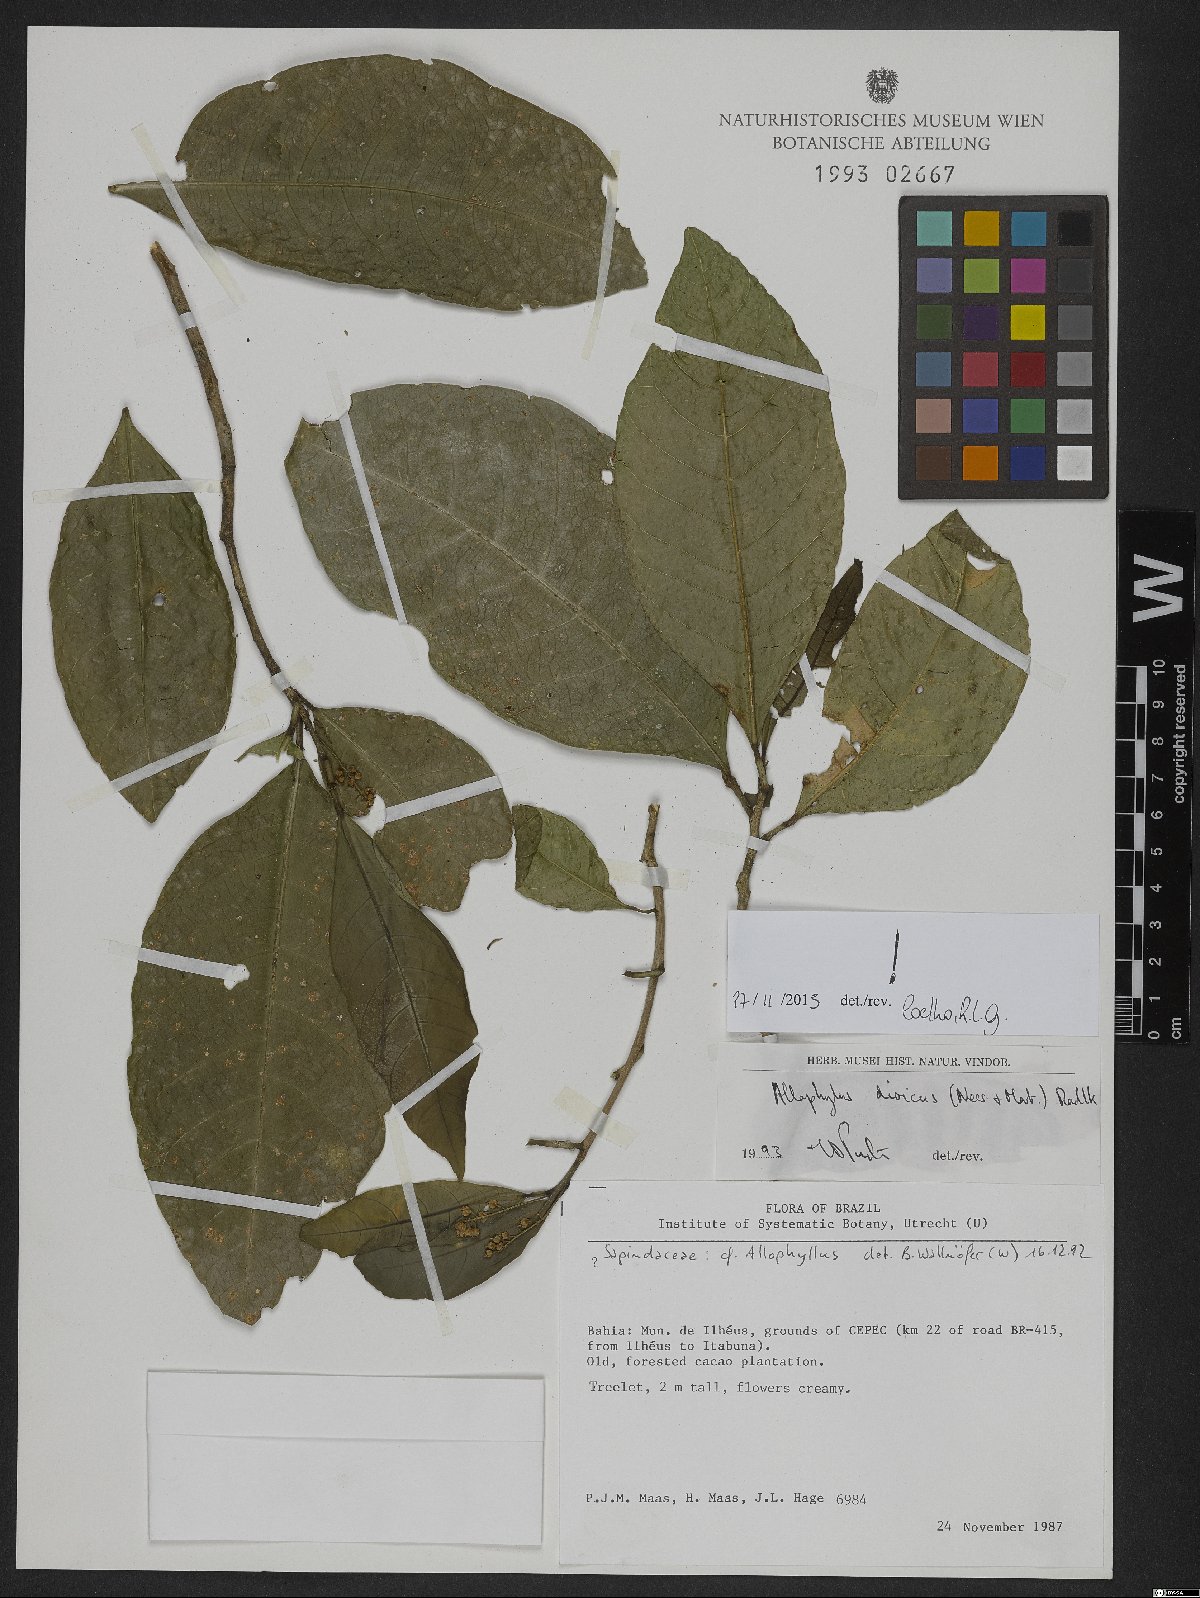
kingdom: Plantae
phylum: Tracheophyta
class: Magnoliopsida
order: Sapindales
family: Sapindaceae
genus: Allophylus
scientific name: Allophylus dioicus
